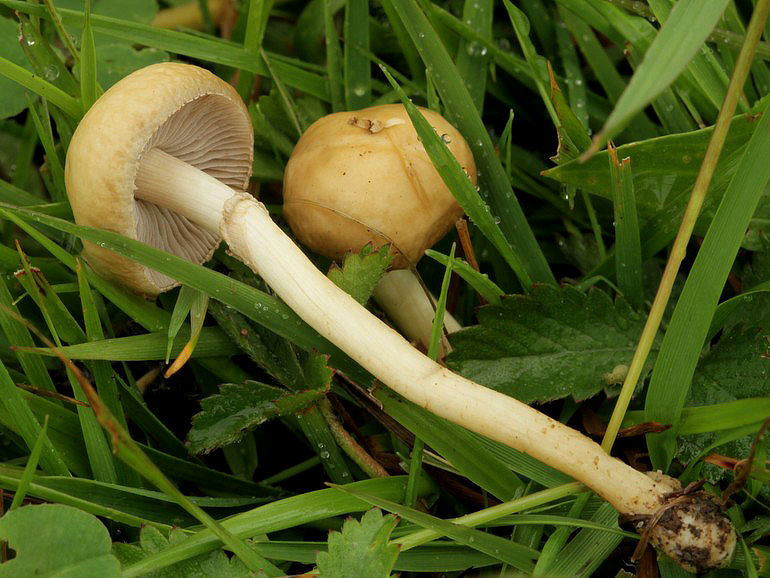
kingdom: Fungi
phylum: Basidiomycota
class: Agaricomycetes
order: Agaricales
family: Strophariaceae
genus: Agrocybe
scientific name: Agrocybe elatella
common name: mose-agerhat
